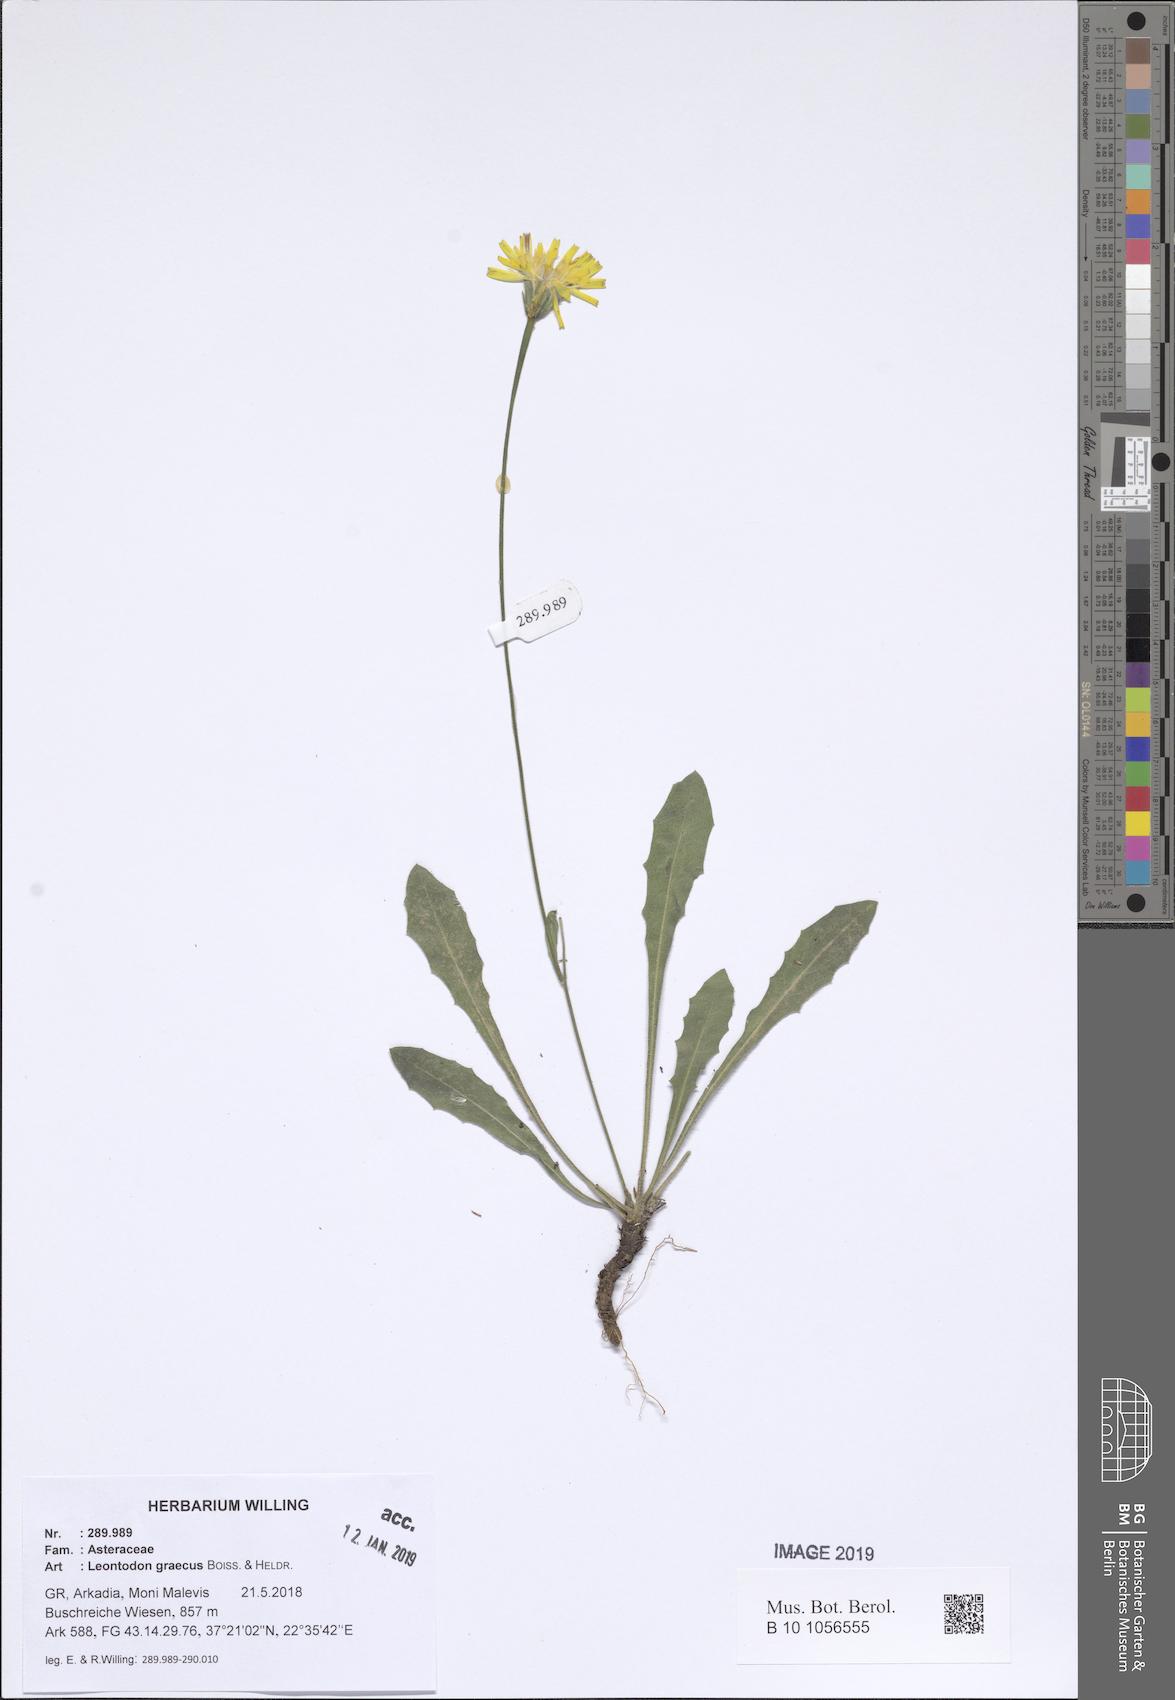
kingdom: Plantae
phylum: Tracheophyta
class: Magnoliopsida
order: Asterales
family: Asteraceae
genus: Leontodon
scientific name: Leontodon graecus
